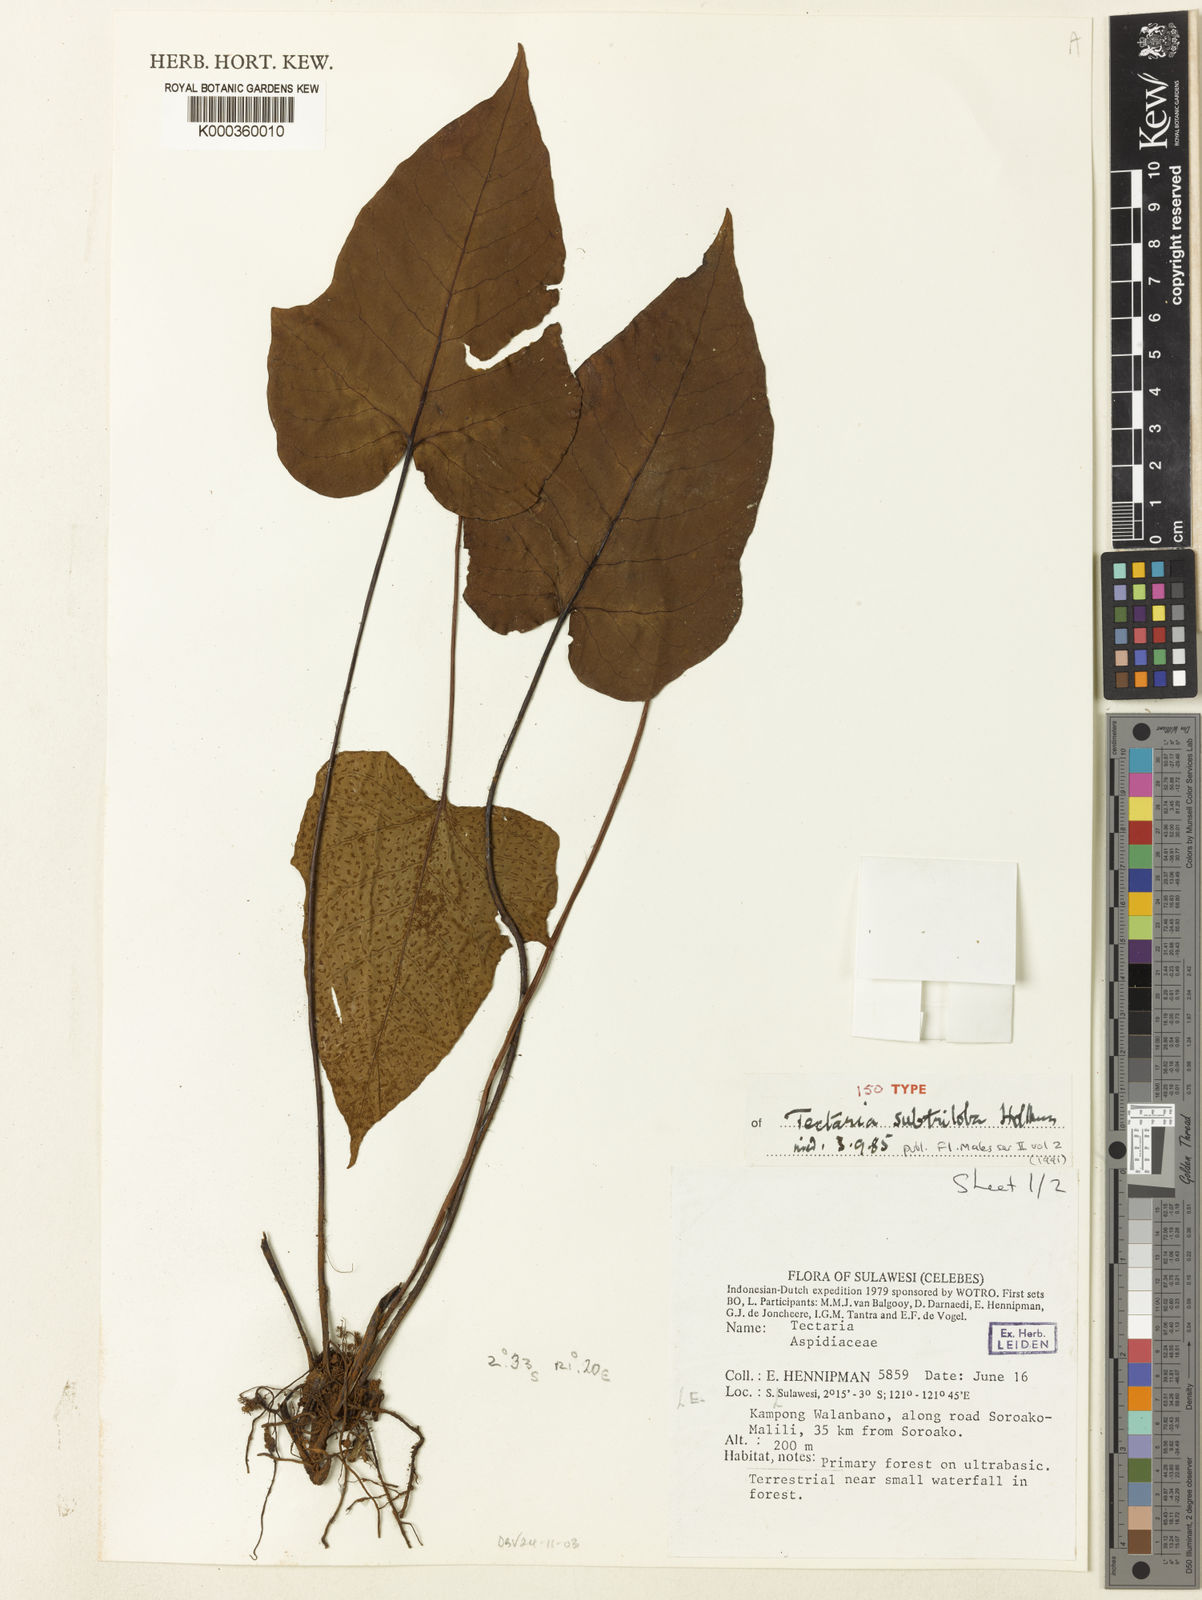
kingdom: Plantae
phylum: Tracheophyta
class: Polypodiopsida
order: Polypodiales
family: Tectariaceae
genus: Tectaria
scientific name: Tectaria subtriloba
